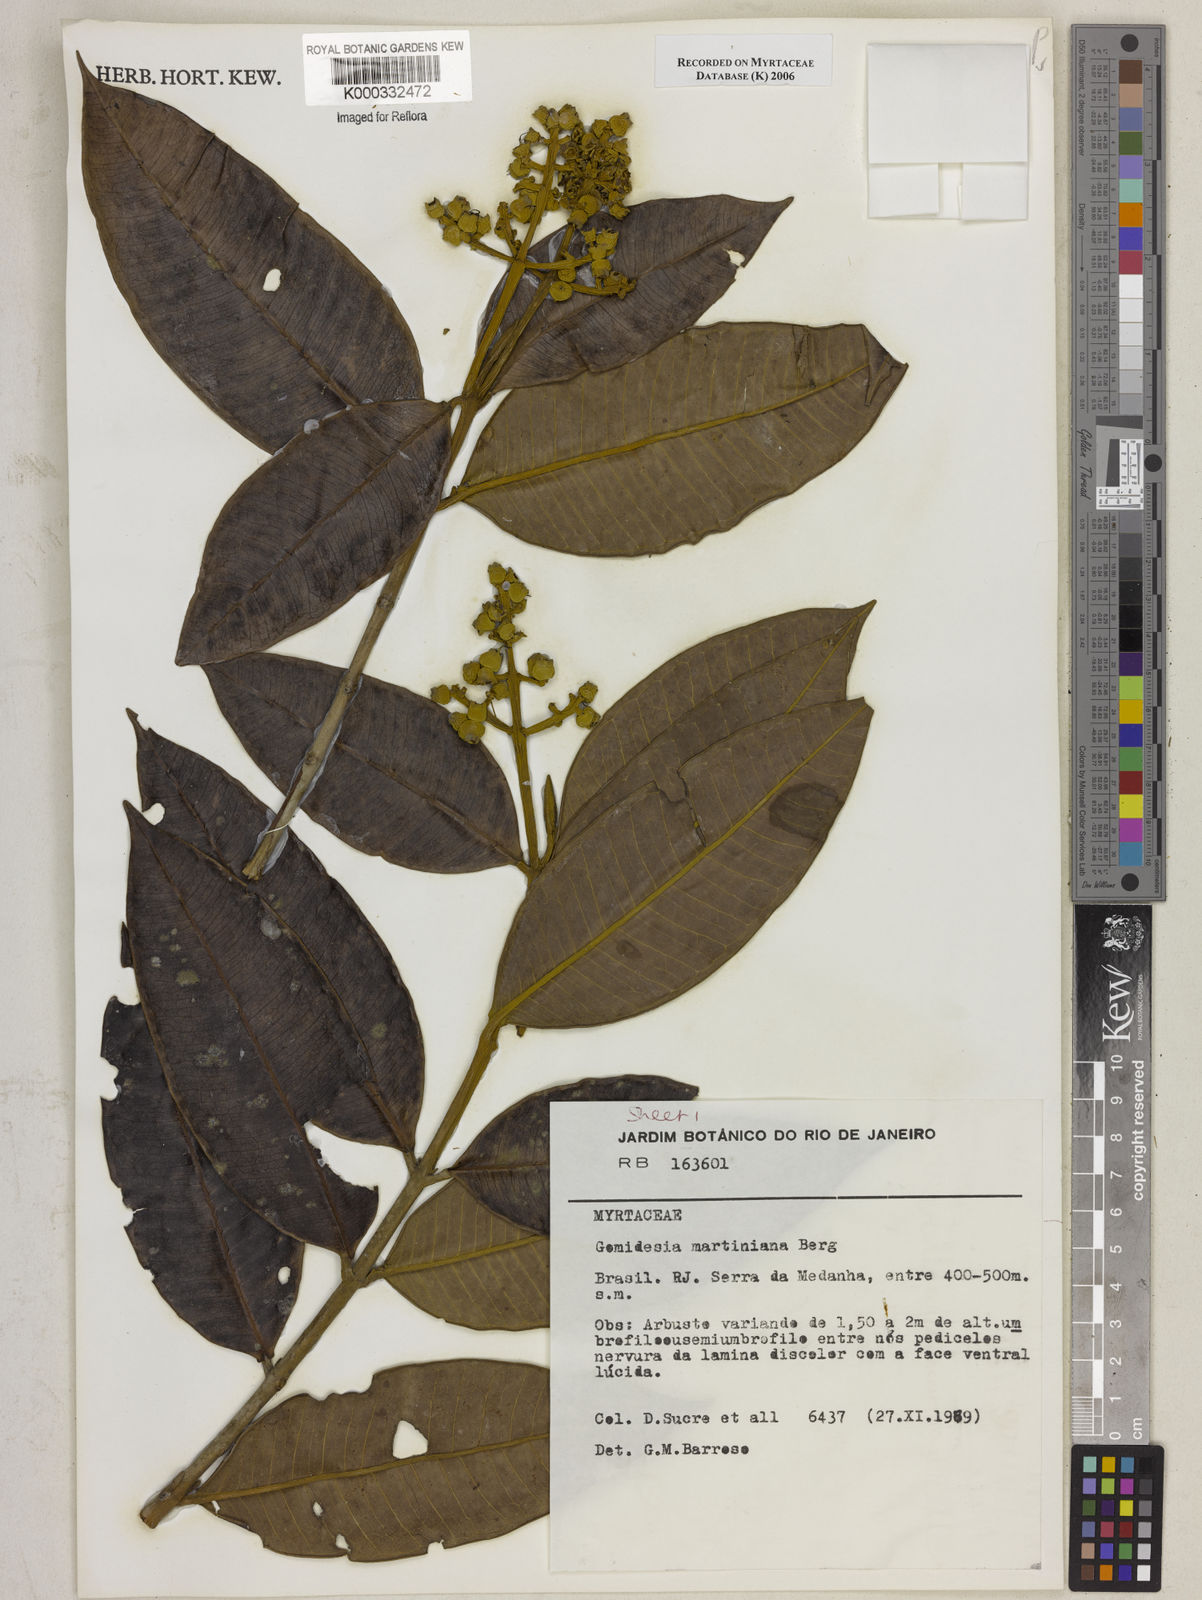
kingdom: Plantae
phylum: Tracheophyta
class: Magnoliopsida
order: Myrtales
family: Myrtaceae
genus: Myrcia
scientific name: Myrcia vittoriana
